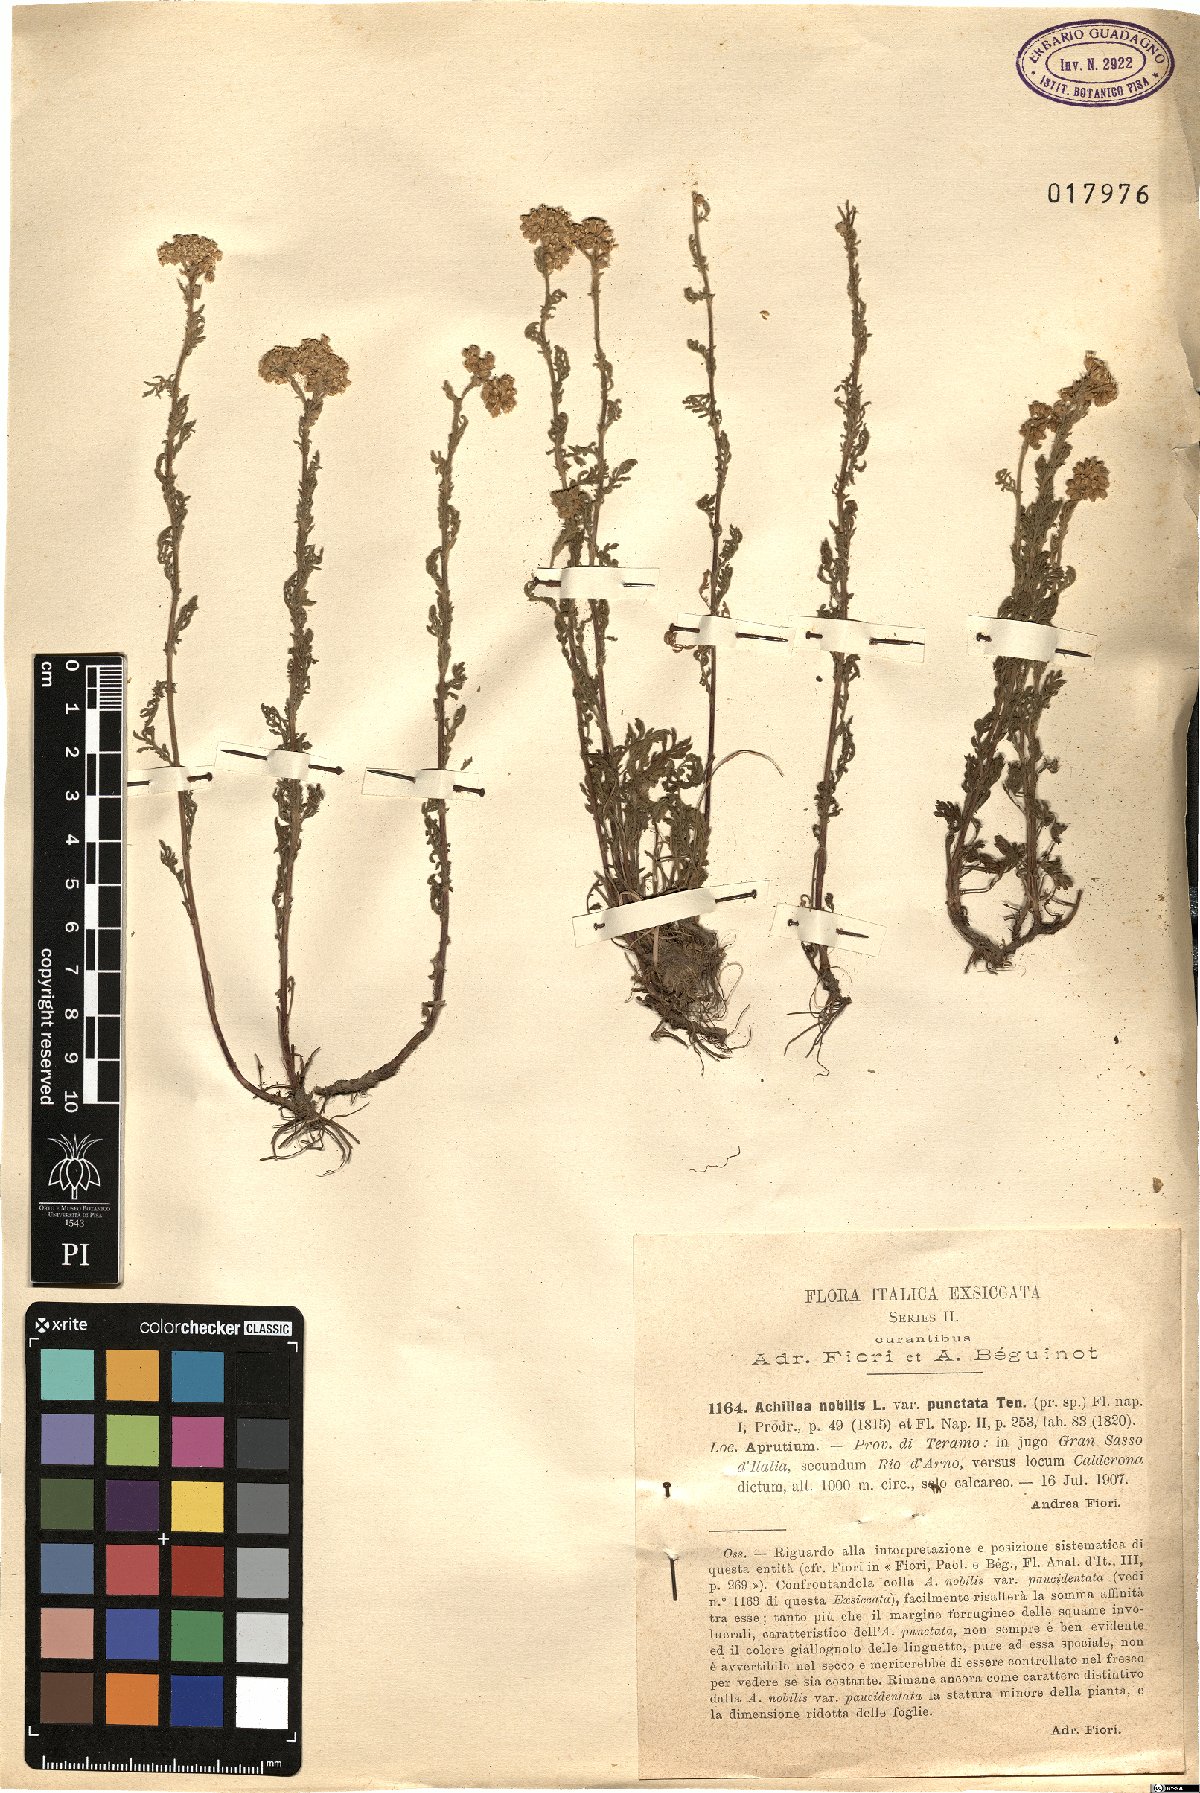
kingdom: Plantae
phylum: Tracheophyta
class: Magnoliopsida
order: Asterales
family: Asteraceae
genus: Achillea
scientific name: Achillea nobilis
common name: Noble yarrow
